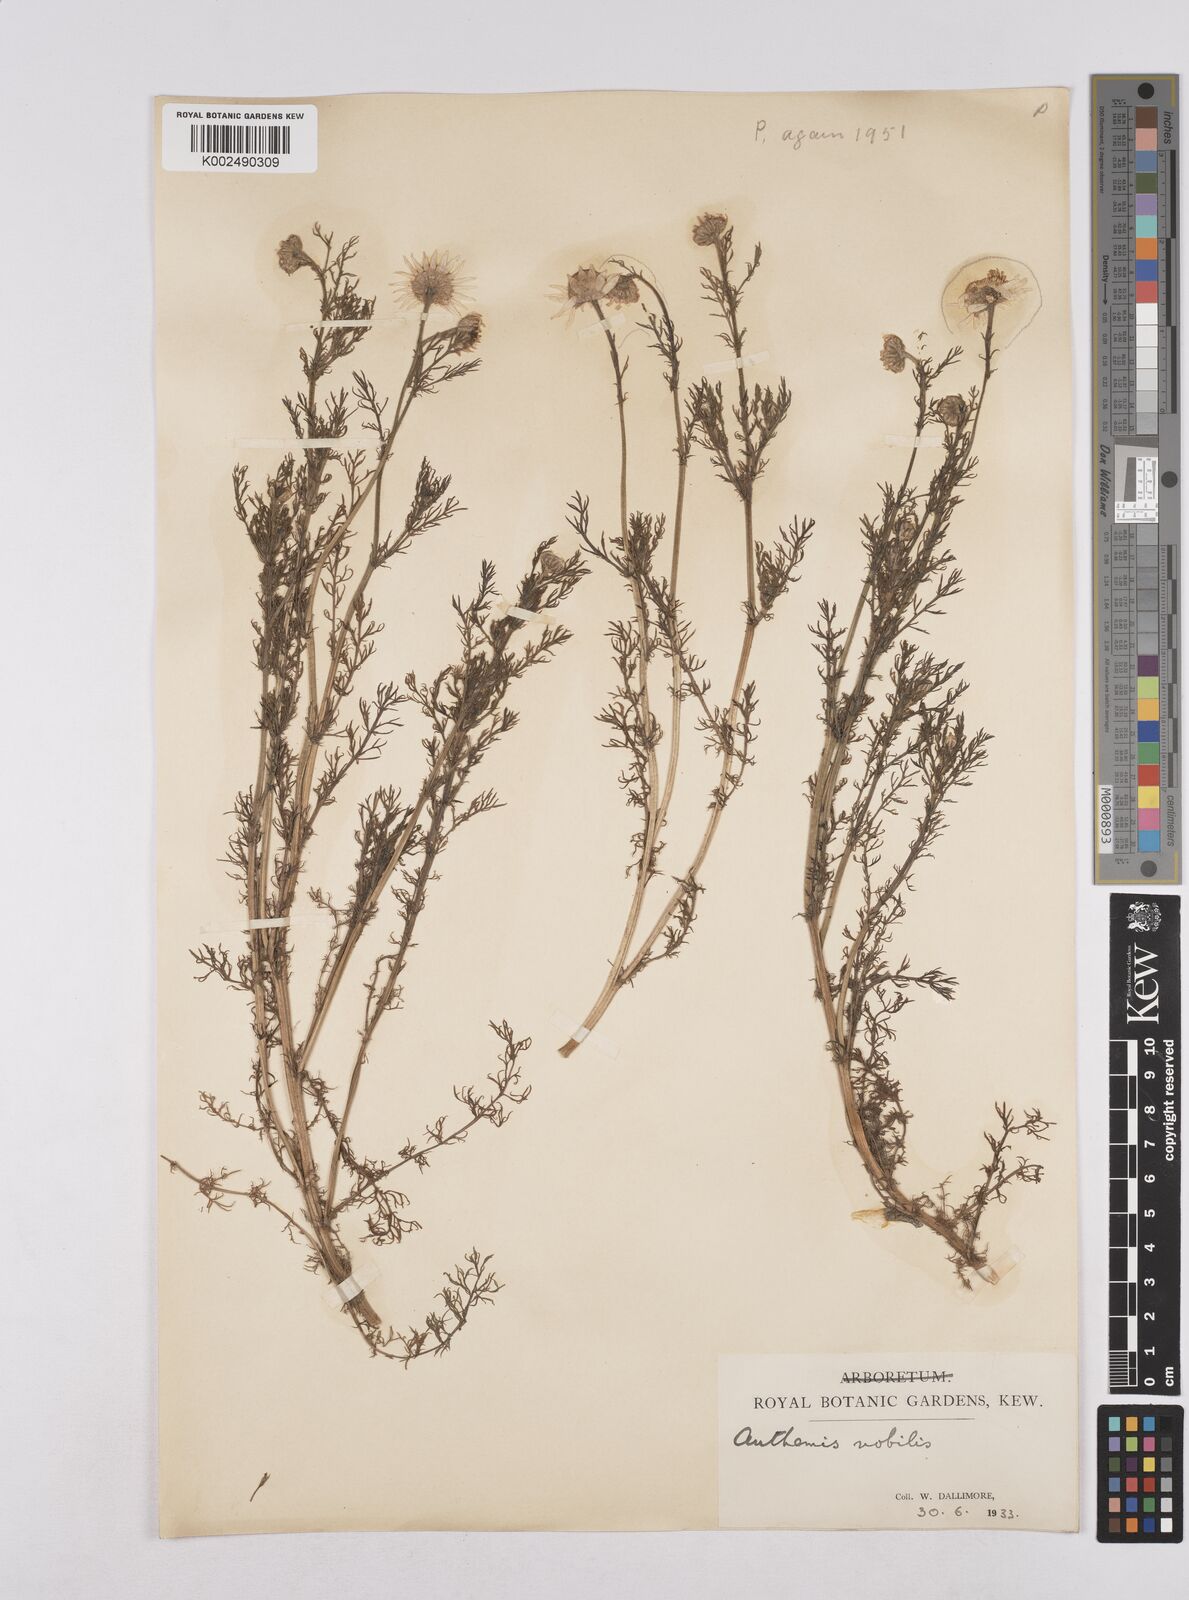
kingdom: Plantae
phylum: Tracheophyta
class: Magnoliopsida
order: Asterales
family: Asteraceae
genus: Matricaria
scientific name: Matricaria chamomilla
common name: Scented mayweed
